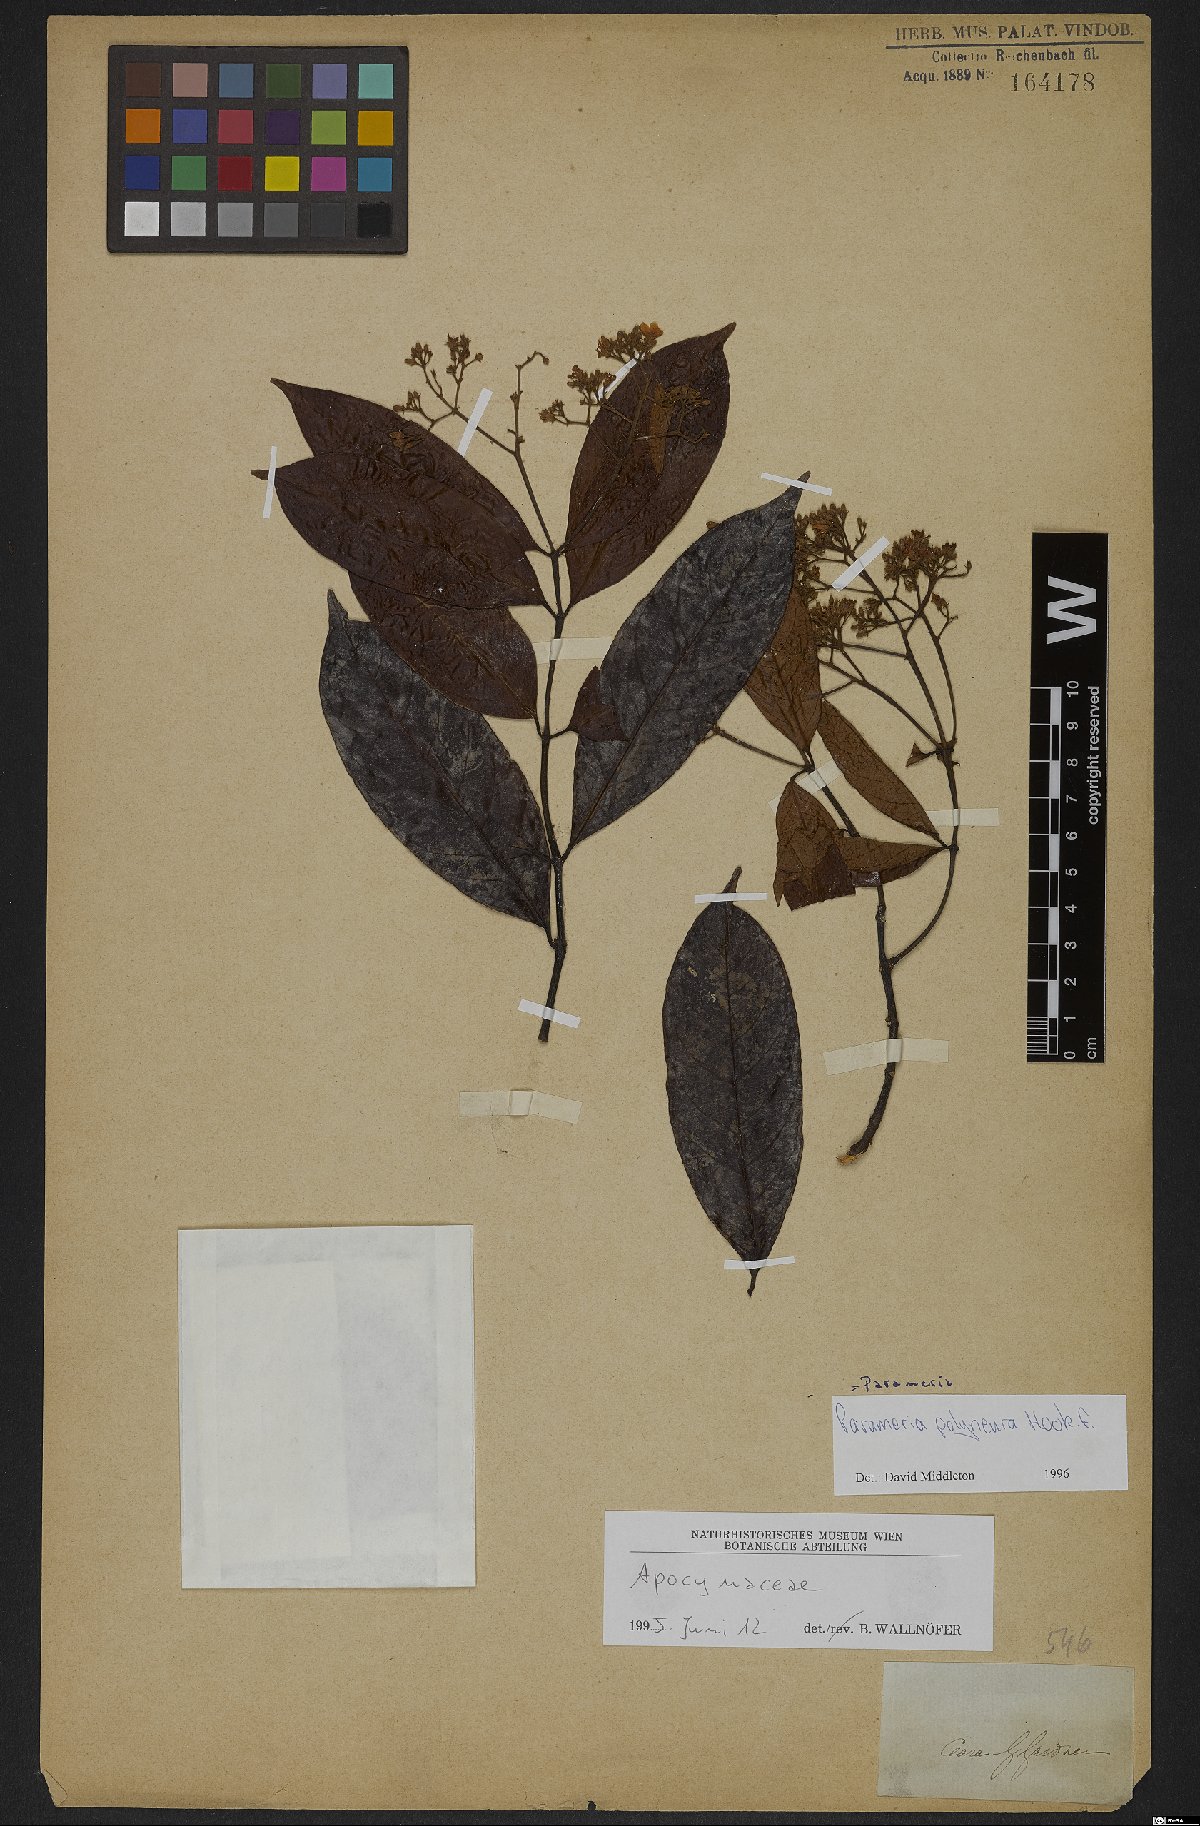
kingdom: Plantae
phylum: Tracheophyta
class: Magnoliopsida
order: Gentianales
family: Apocynaceae
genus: Urceola
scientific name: Urceola polyneura
